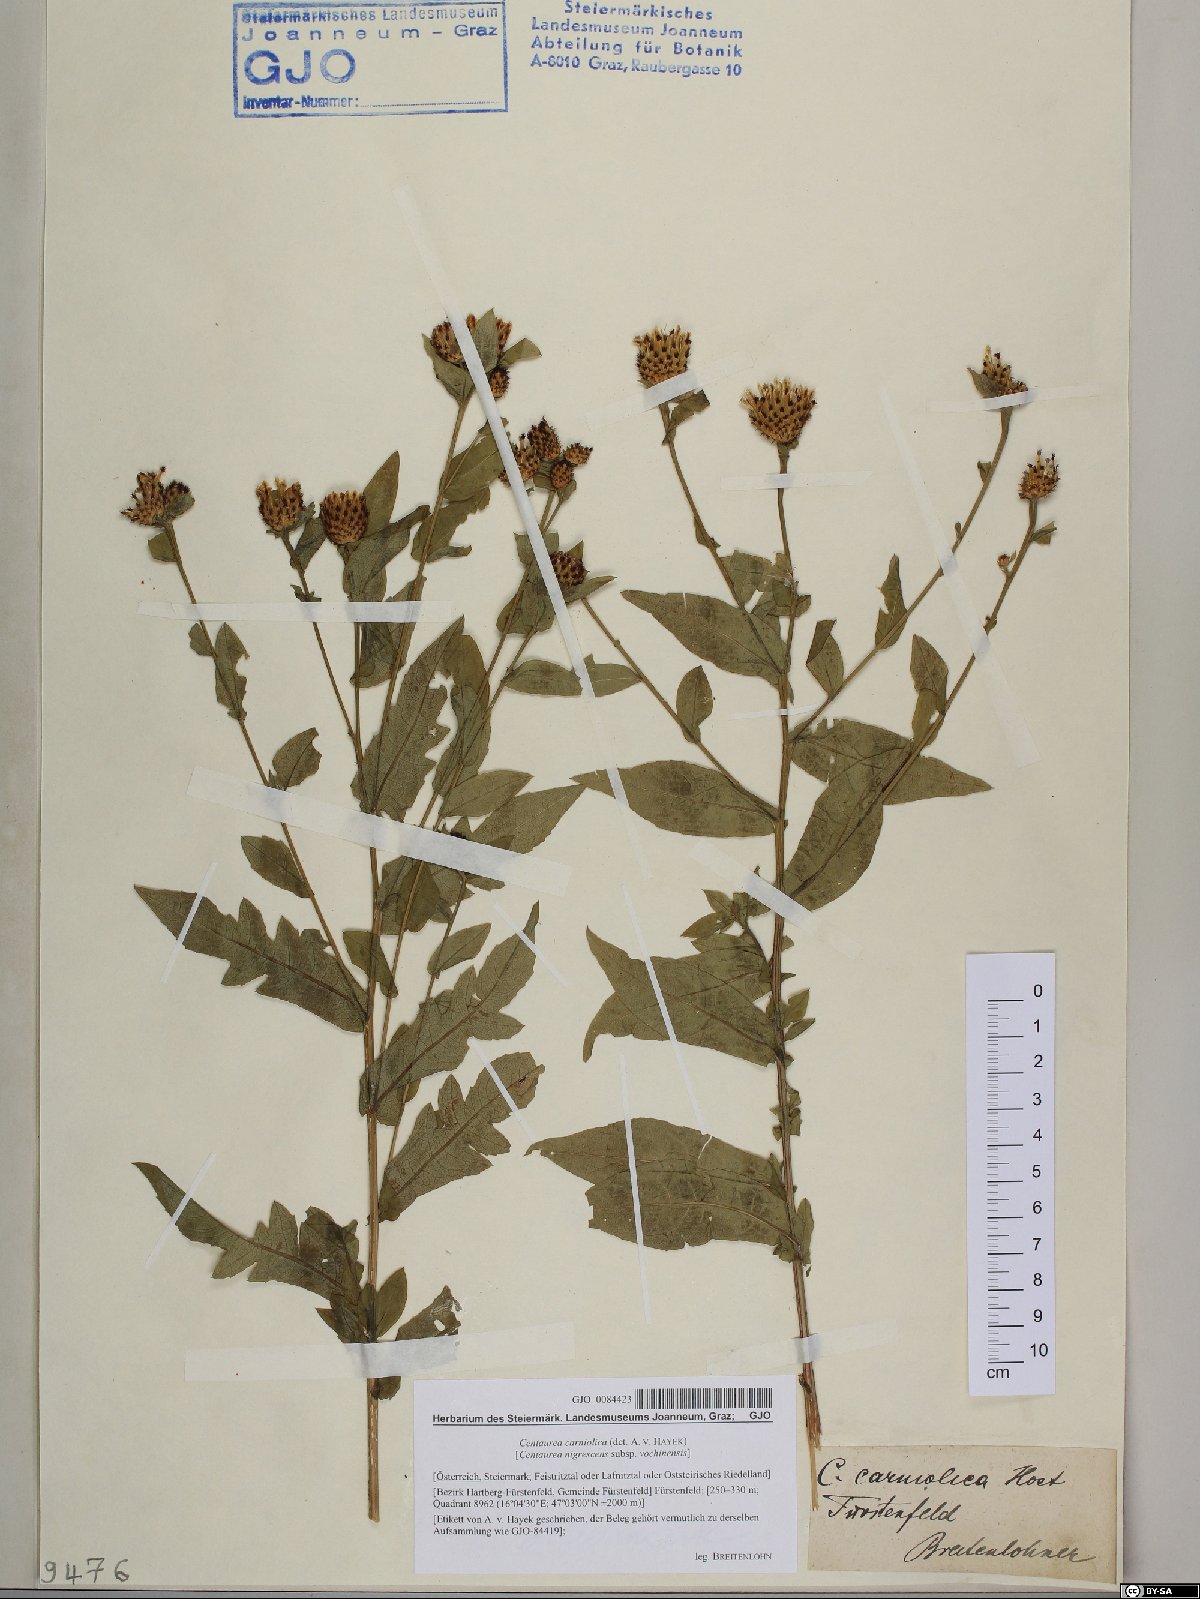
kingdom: Plantae
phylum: Tracheophyta
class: Magnoliopsida
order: Asterales
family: Asteraceae
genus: Centaurea
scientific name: Centaurea carniolica
